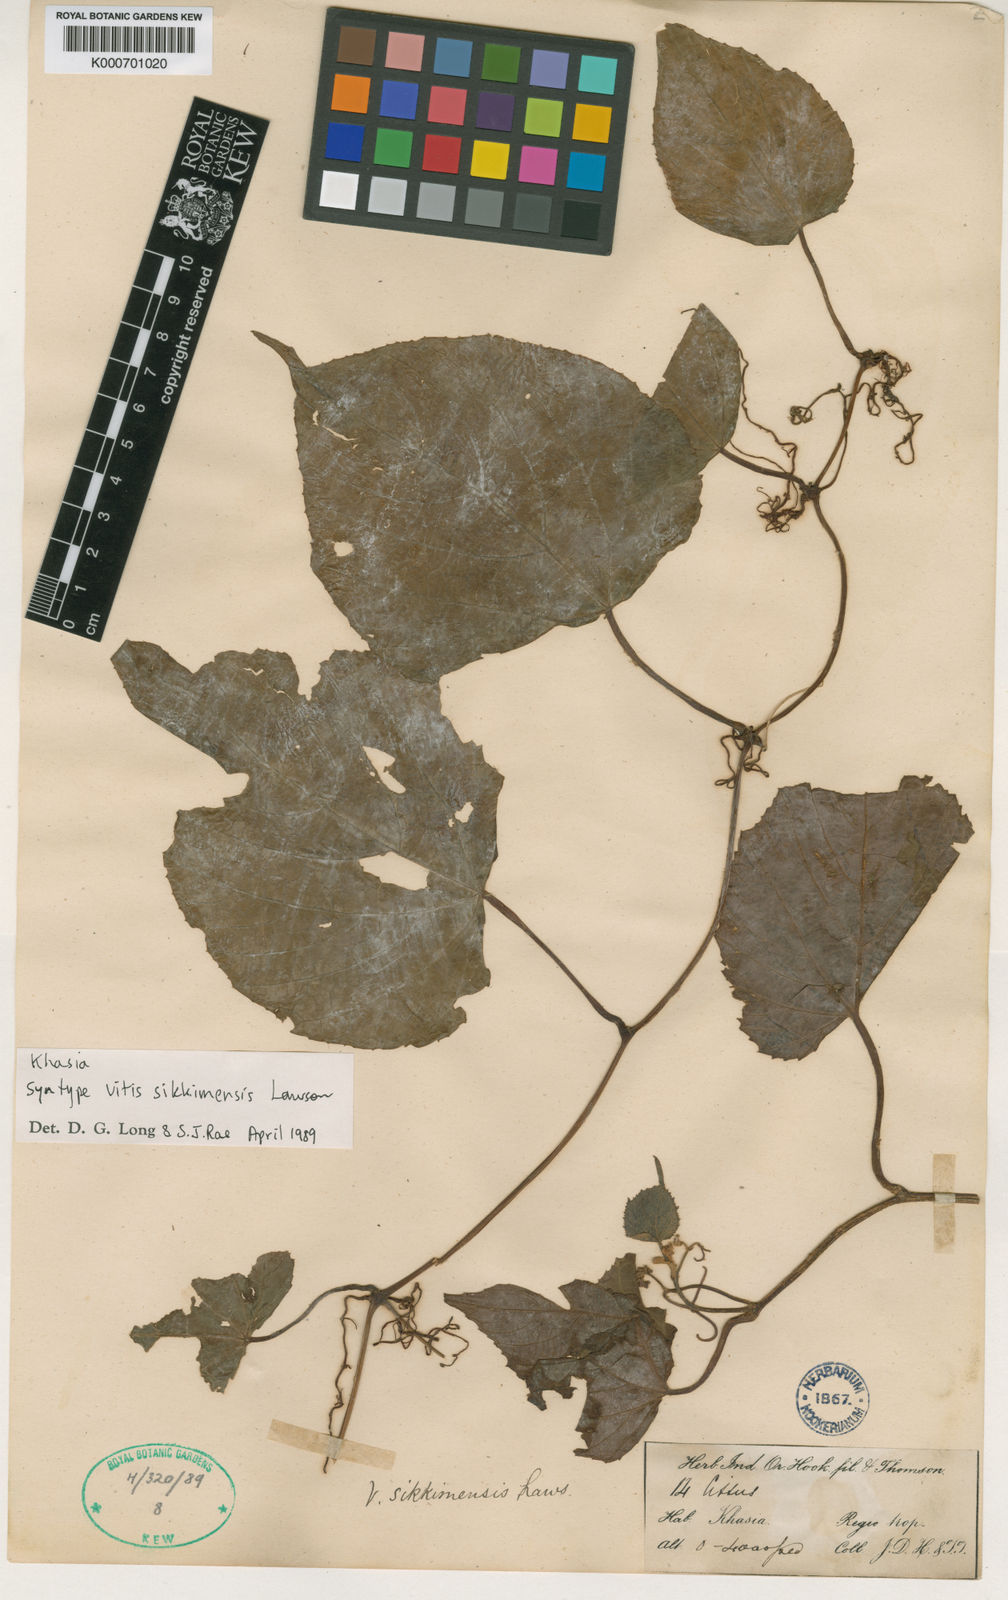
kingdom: Plantae
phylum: Tracheophyta
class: Magnoliopsida
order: Vitales
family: Vitaceae
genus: Ampelocissus
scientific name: Ampelocissus sikkimensis
